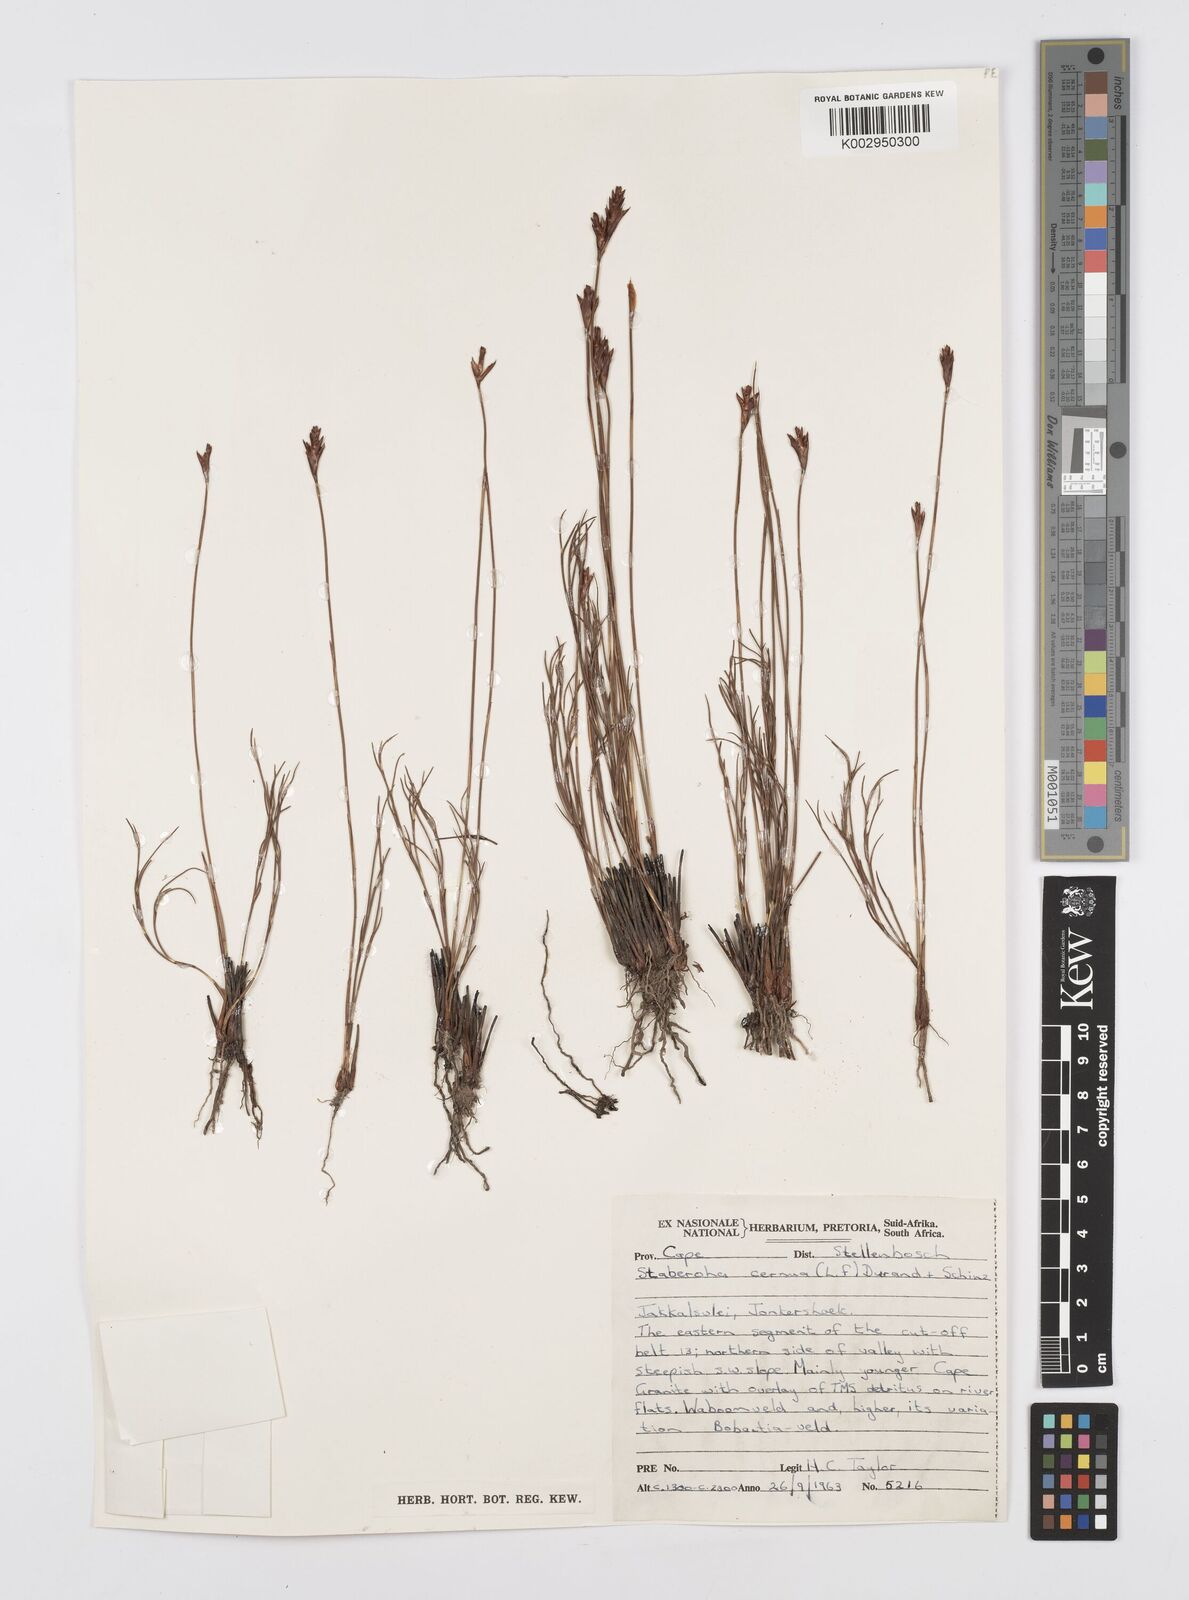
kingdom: Plantae
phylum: Tracheophyta
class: Liliopsida
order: Poales
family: Restionaceae
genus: Staberoha
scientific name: Staberoha cernua
